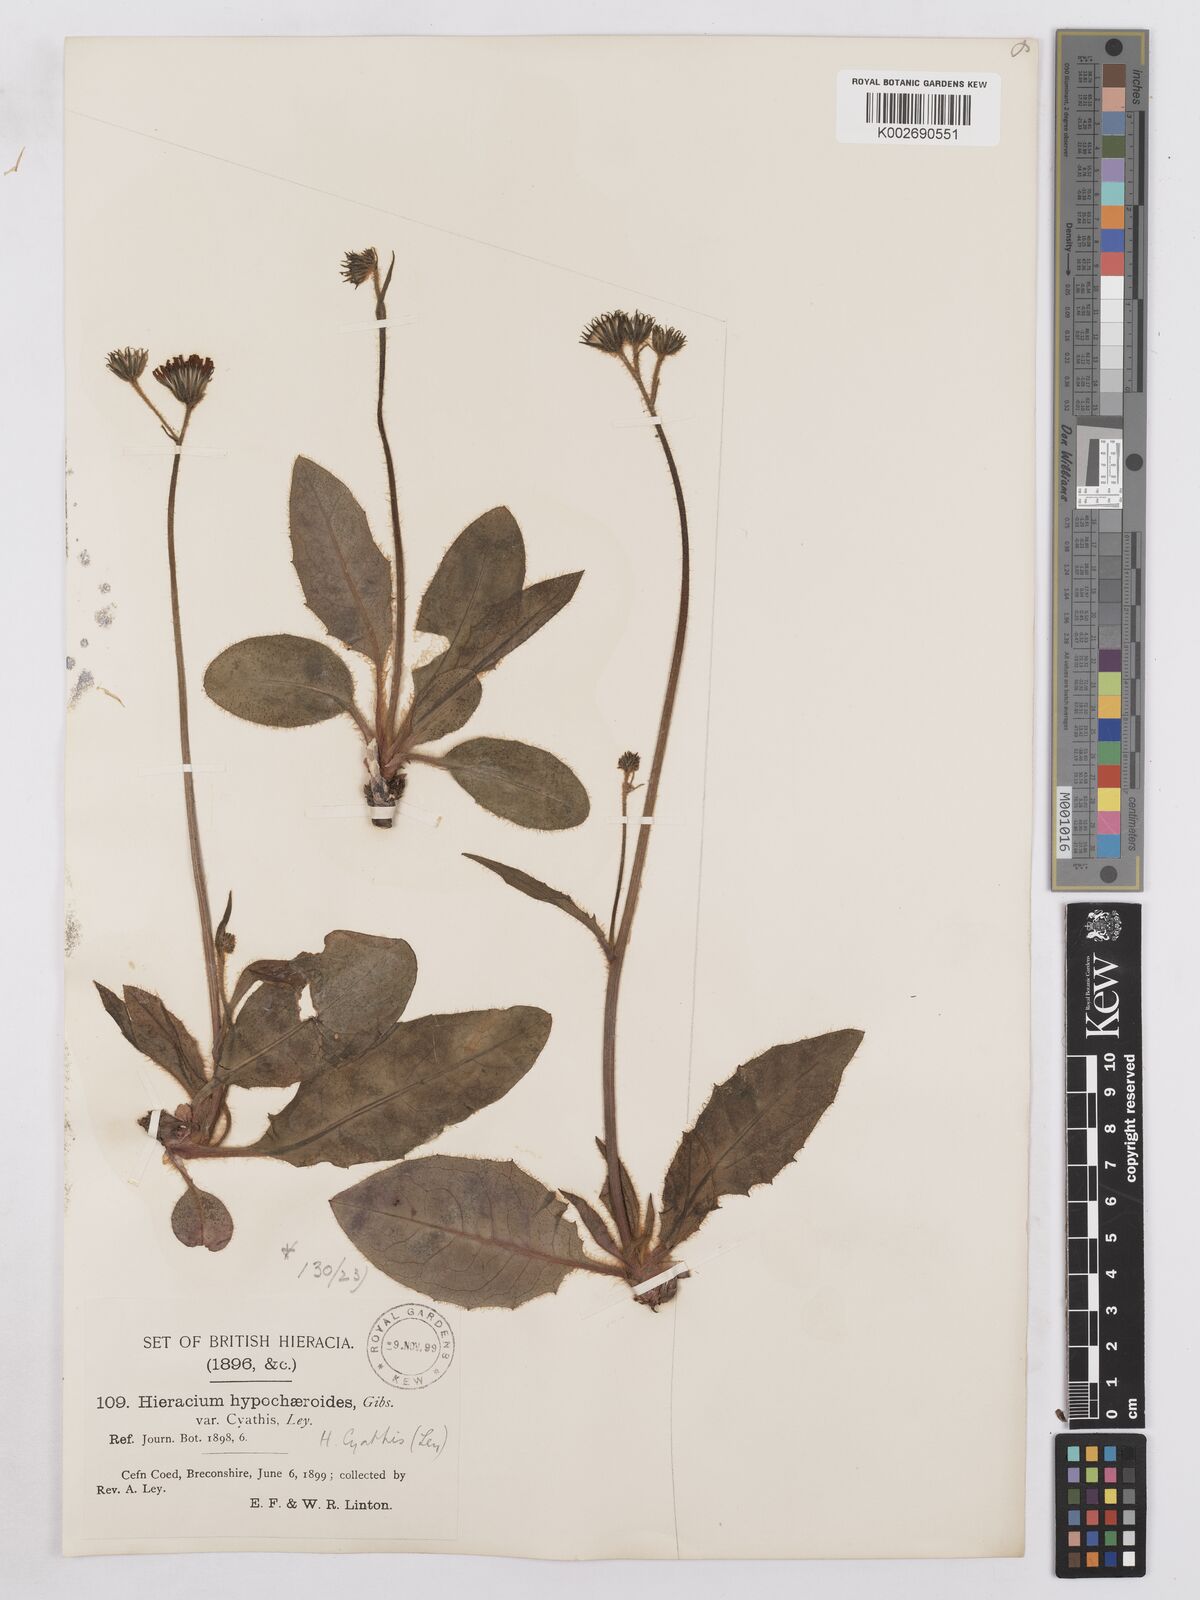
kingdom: Plantae
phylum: Tracheophyta
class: Magnoliopsida
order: Asterales
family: Asteraceae
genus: Hieracium
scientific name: Hieracium hypochoeroides
